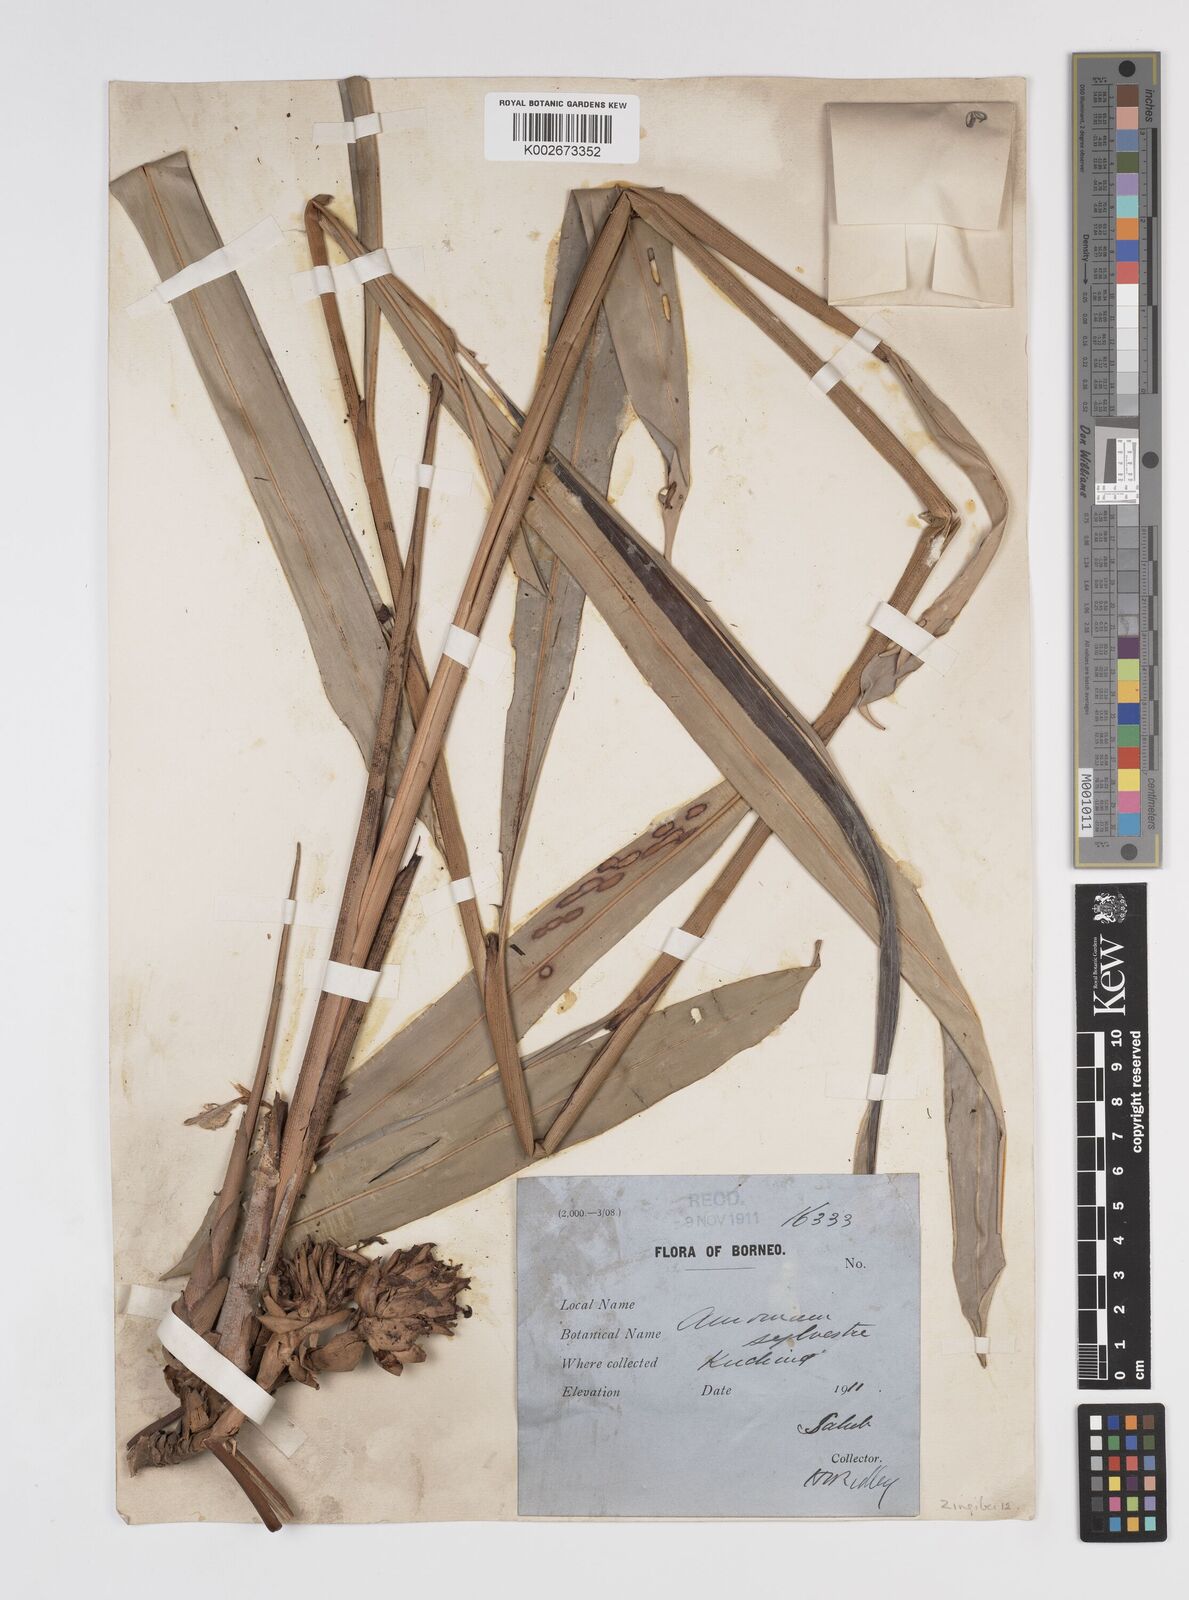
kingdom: Plantae
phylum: Tracheophyta
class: Liliopsida
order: Zingiberales
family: Zingiberaceae
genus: Sundamomum
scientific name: Sundamomum borealiborneense
